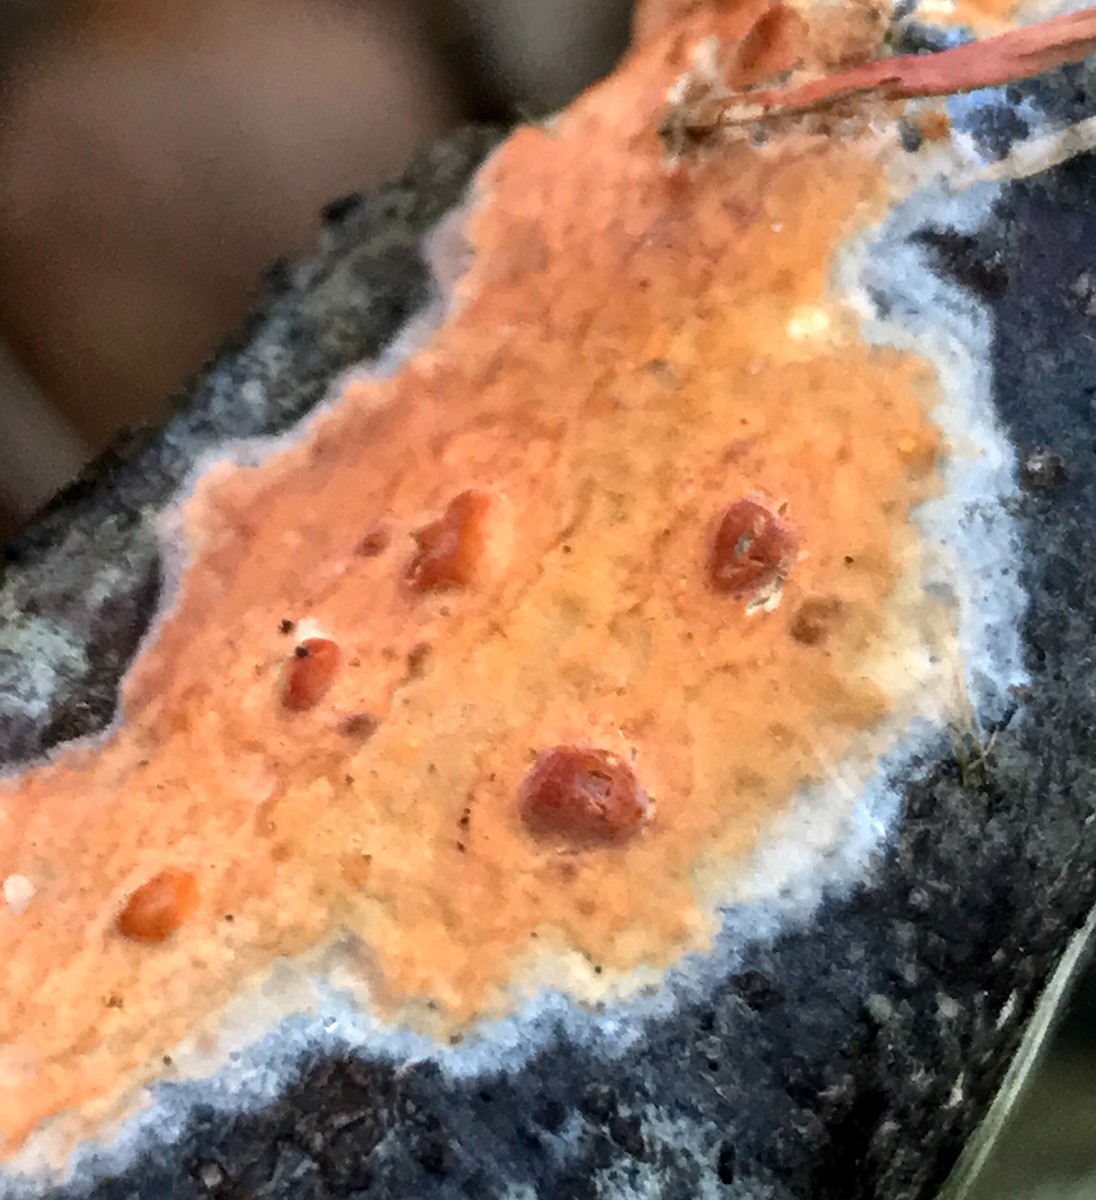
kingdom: Fungi
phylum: Basidiomycota
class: Agaricomycetes
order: Russulales
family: Peniophoraceae
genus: Peniophora
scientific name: Peniophora incarnata
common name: laksefarvet voksskind
